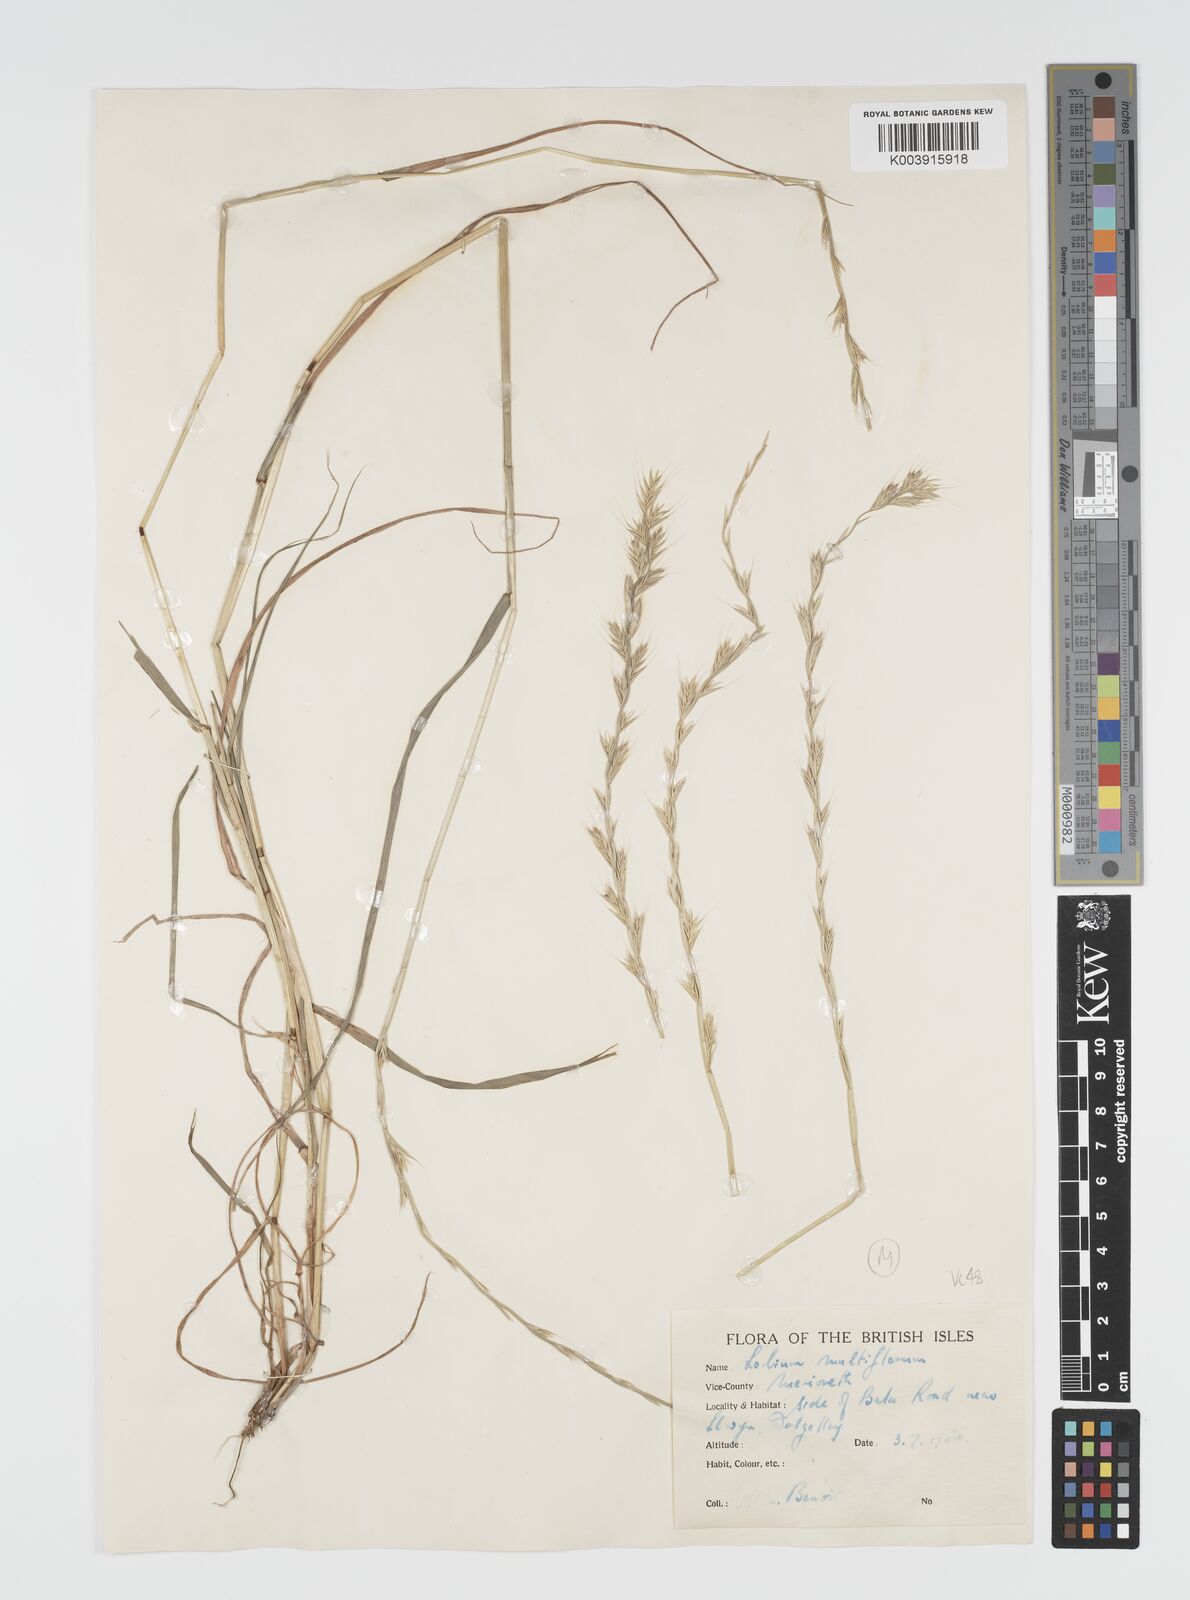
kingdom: Plantae
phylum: Tracheophyta
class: Liliopsida
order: Poales
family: Poaceae
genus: Lolium
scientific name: Lolium multiflorum
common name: Annual ryegrass
